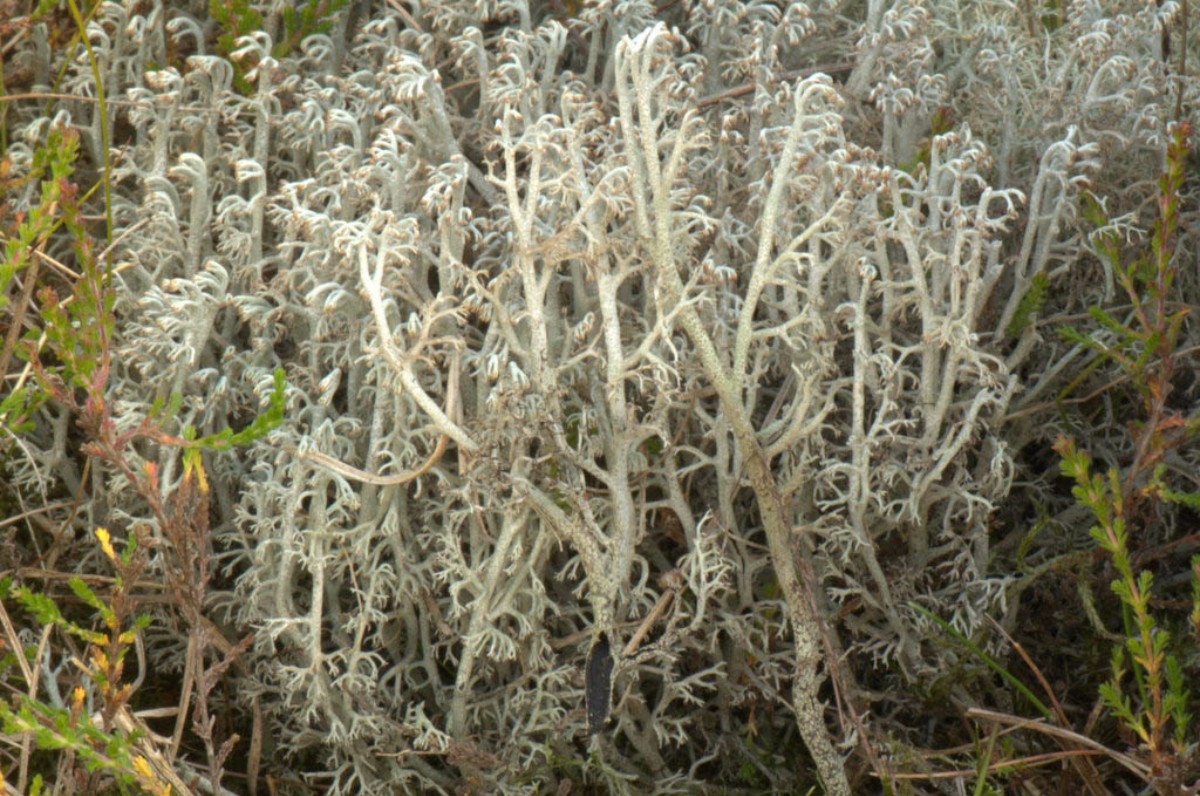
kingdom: Fungi
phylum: Ascomycota
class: Lecanoromycetes
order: Lecanorales
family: Cladoniaceae
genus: Cladonia
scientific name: Cladonia stygia
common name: styg rensdyrlav
